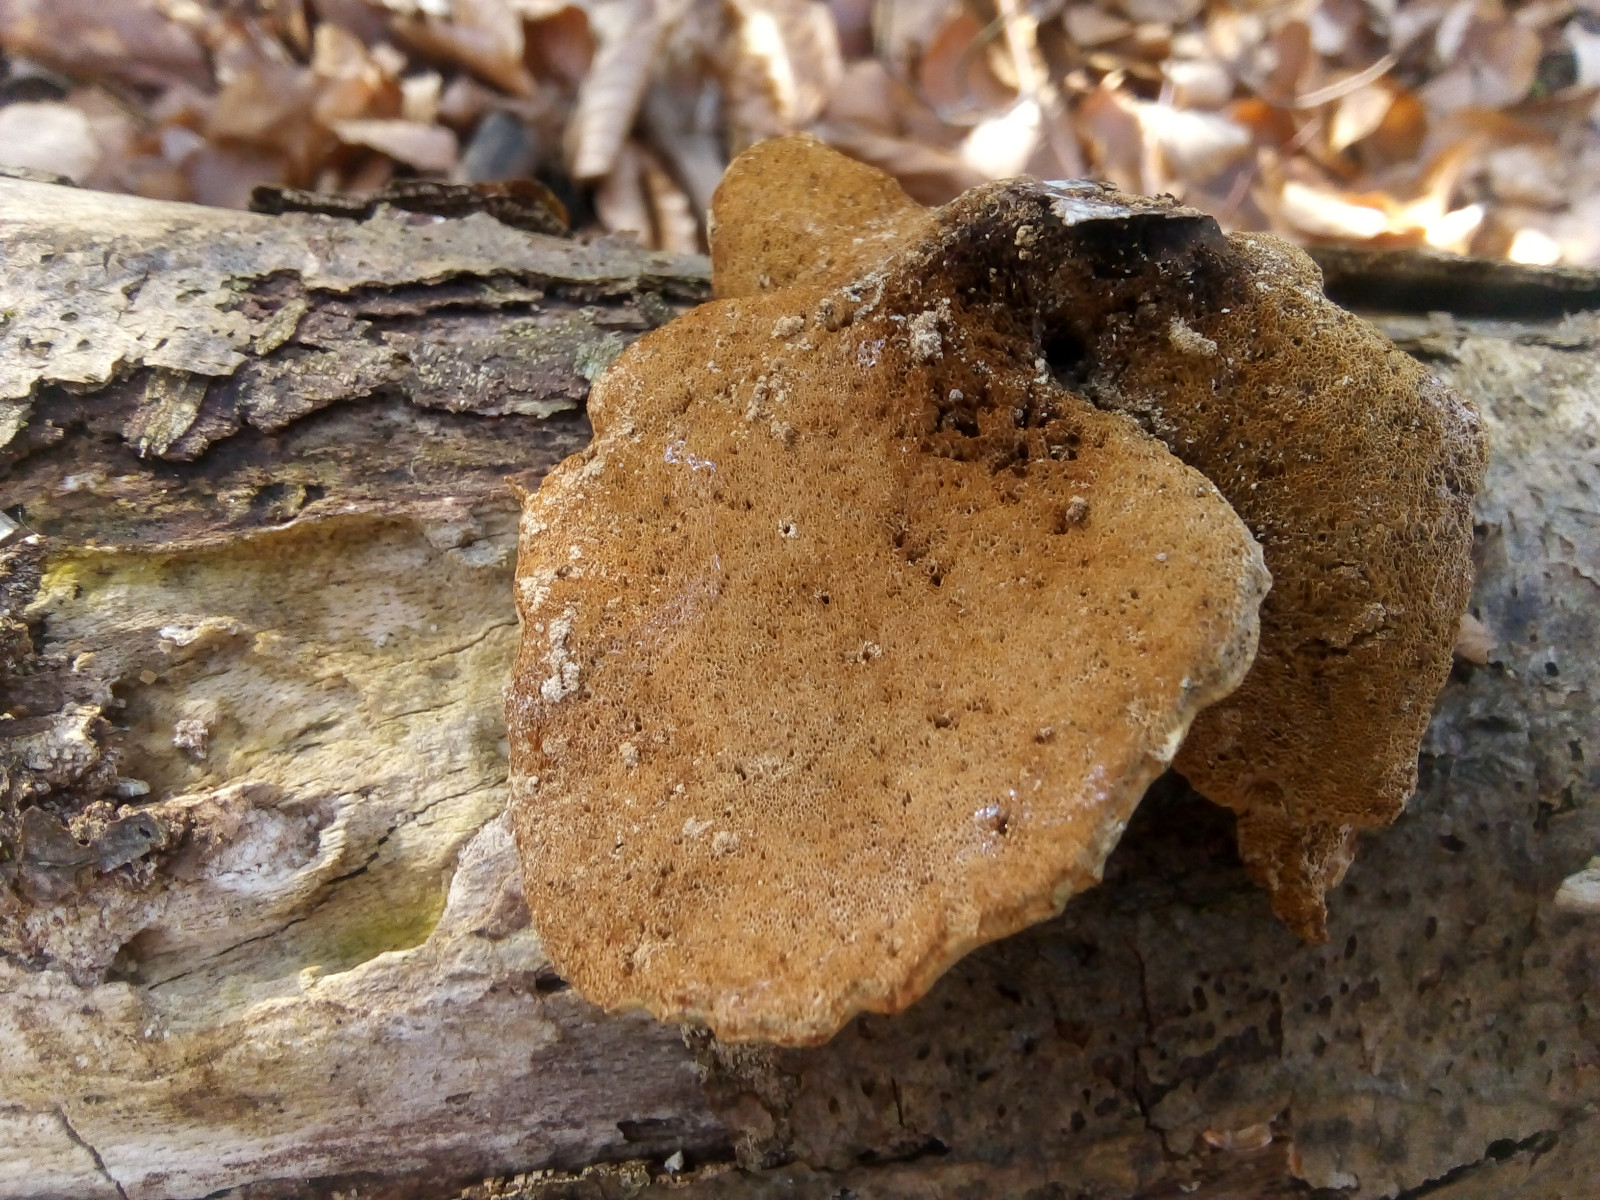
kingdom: Fungi
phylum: Basidiomycota
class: Agaricomycetes
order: Polyporales
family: Polyporaceae
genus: Cerioporus
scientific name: Cerioporus varius
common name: foranderlig stilkporesvamp
